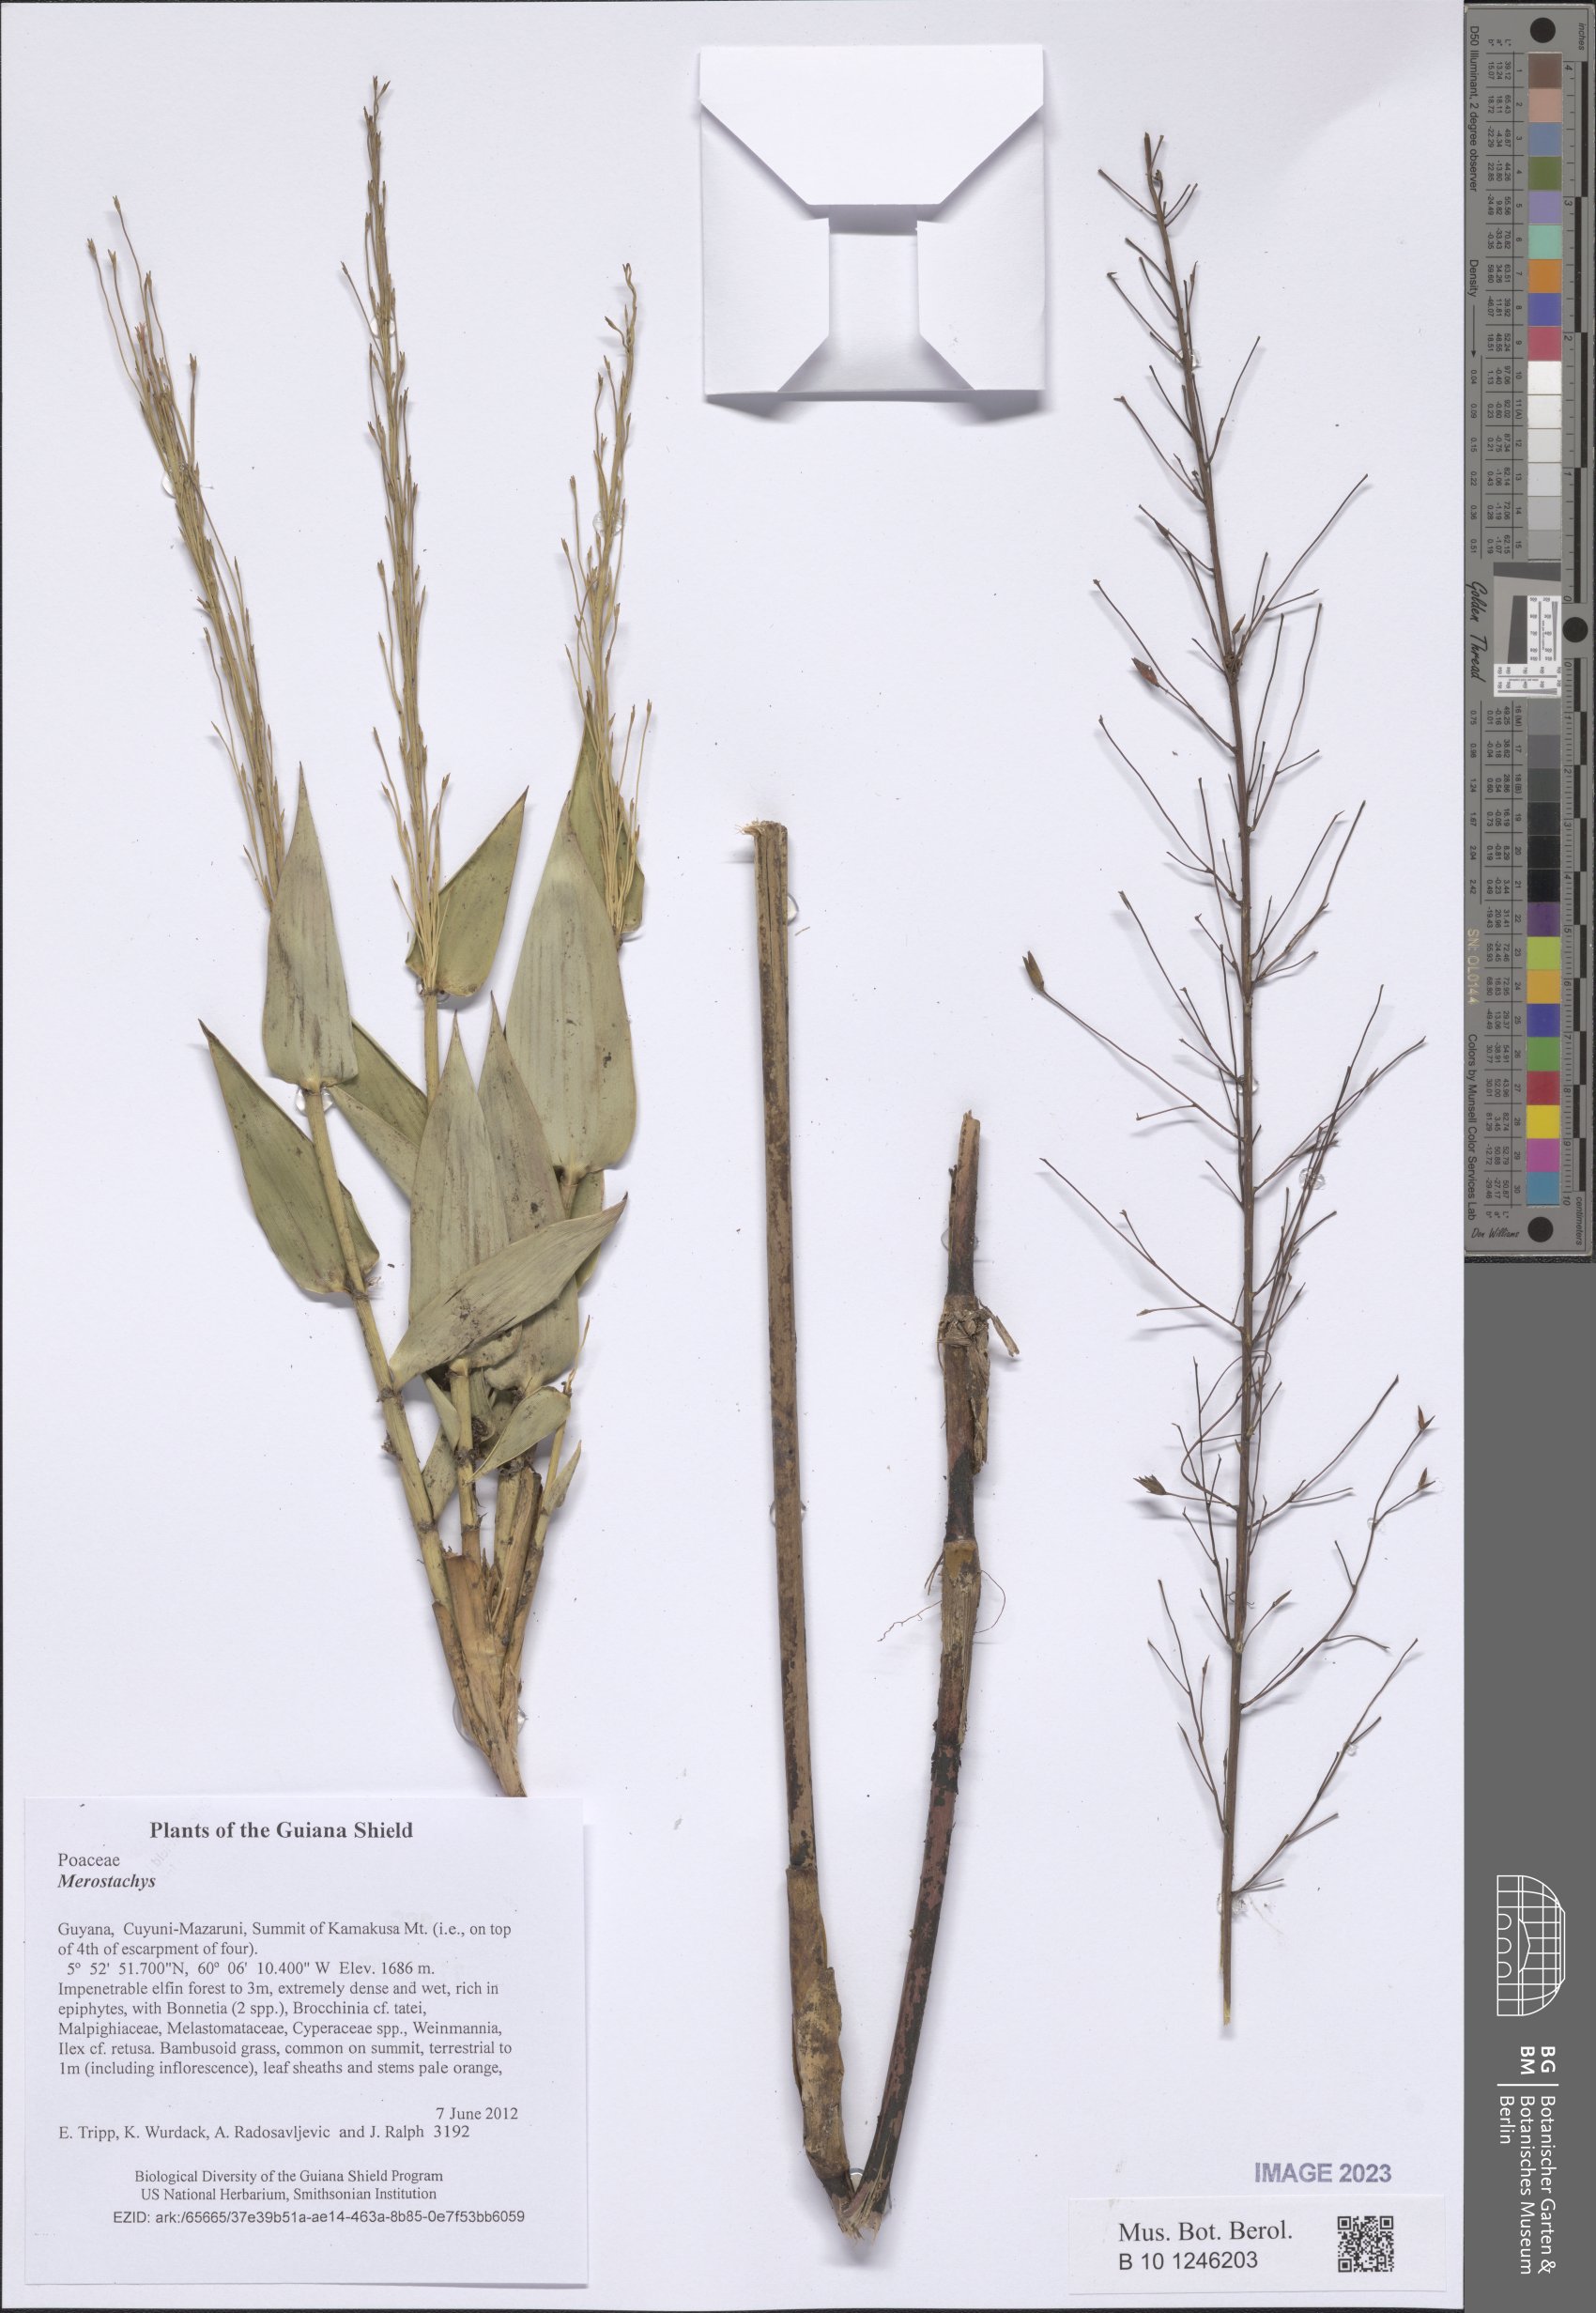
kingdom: Plantae
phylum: Tracheophyta
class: Liliopsida
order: Poales
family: Poaceae
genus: Merostachys
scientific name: Merostachys
